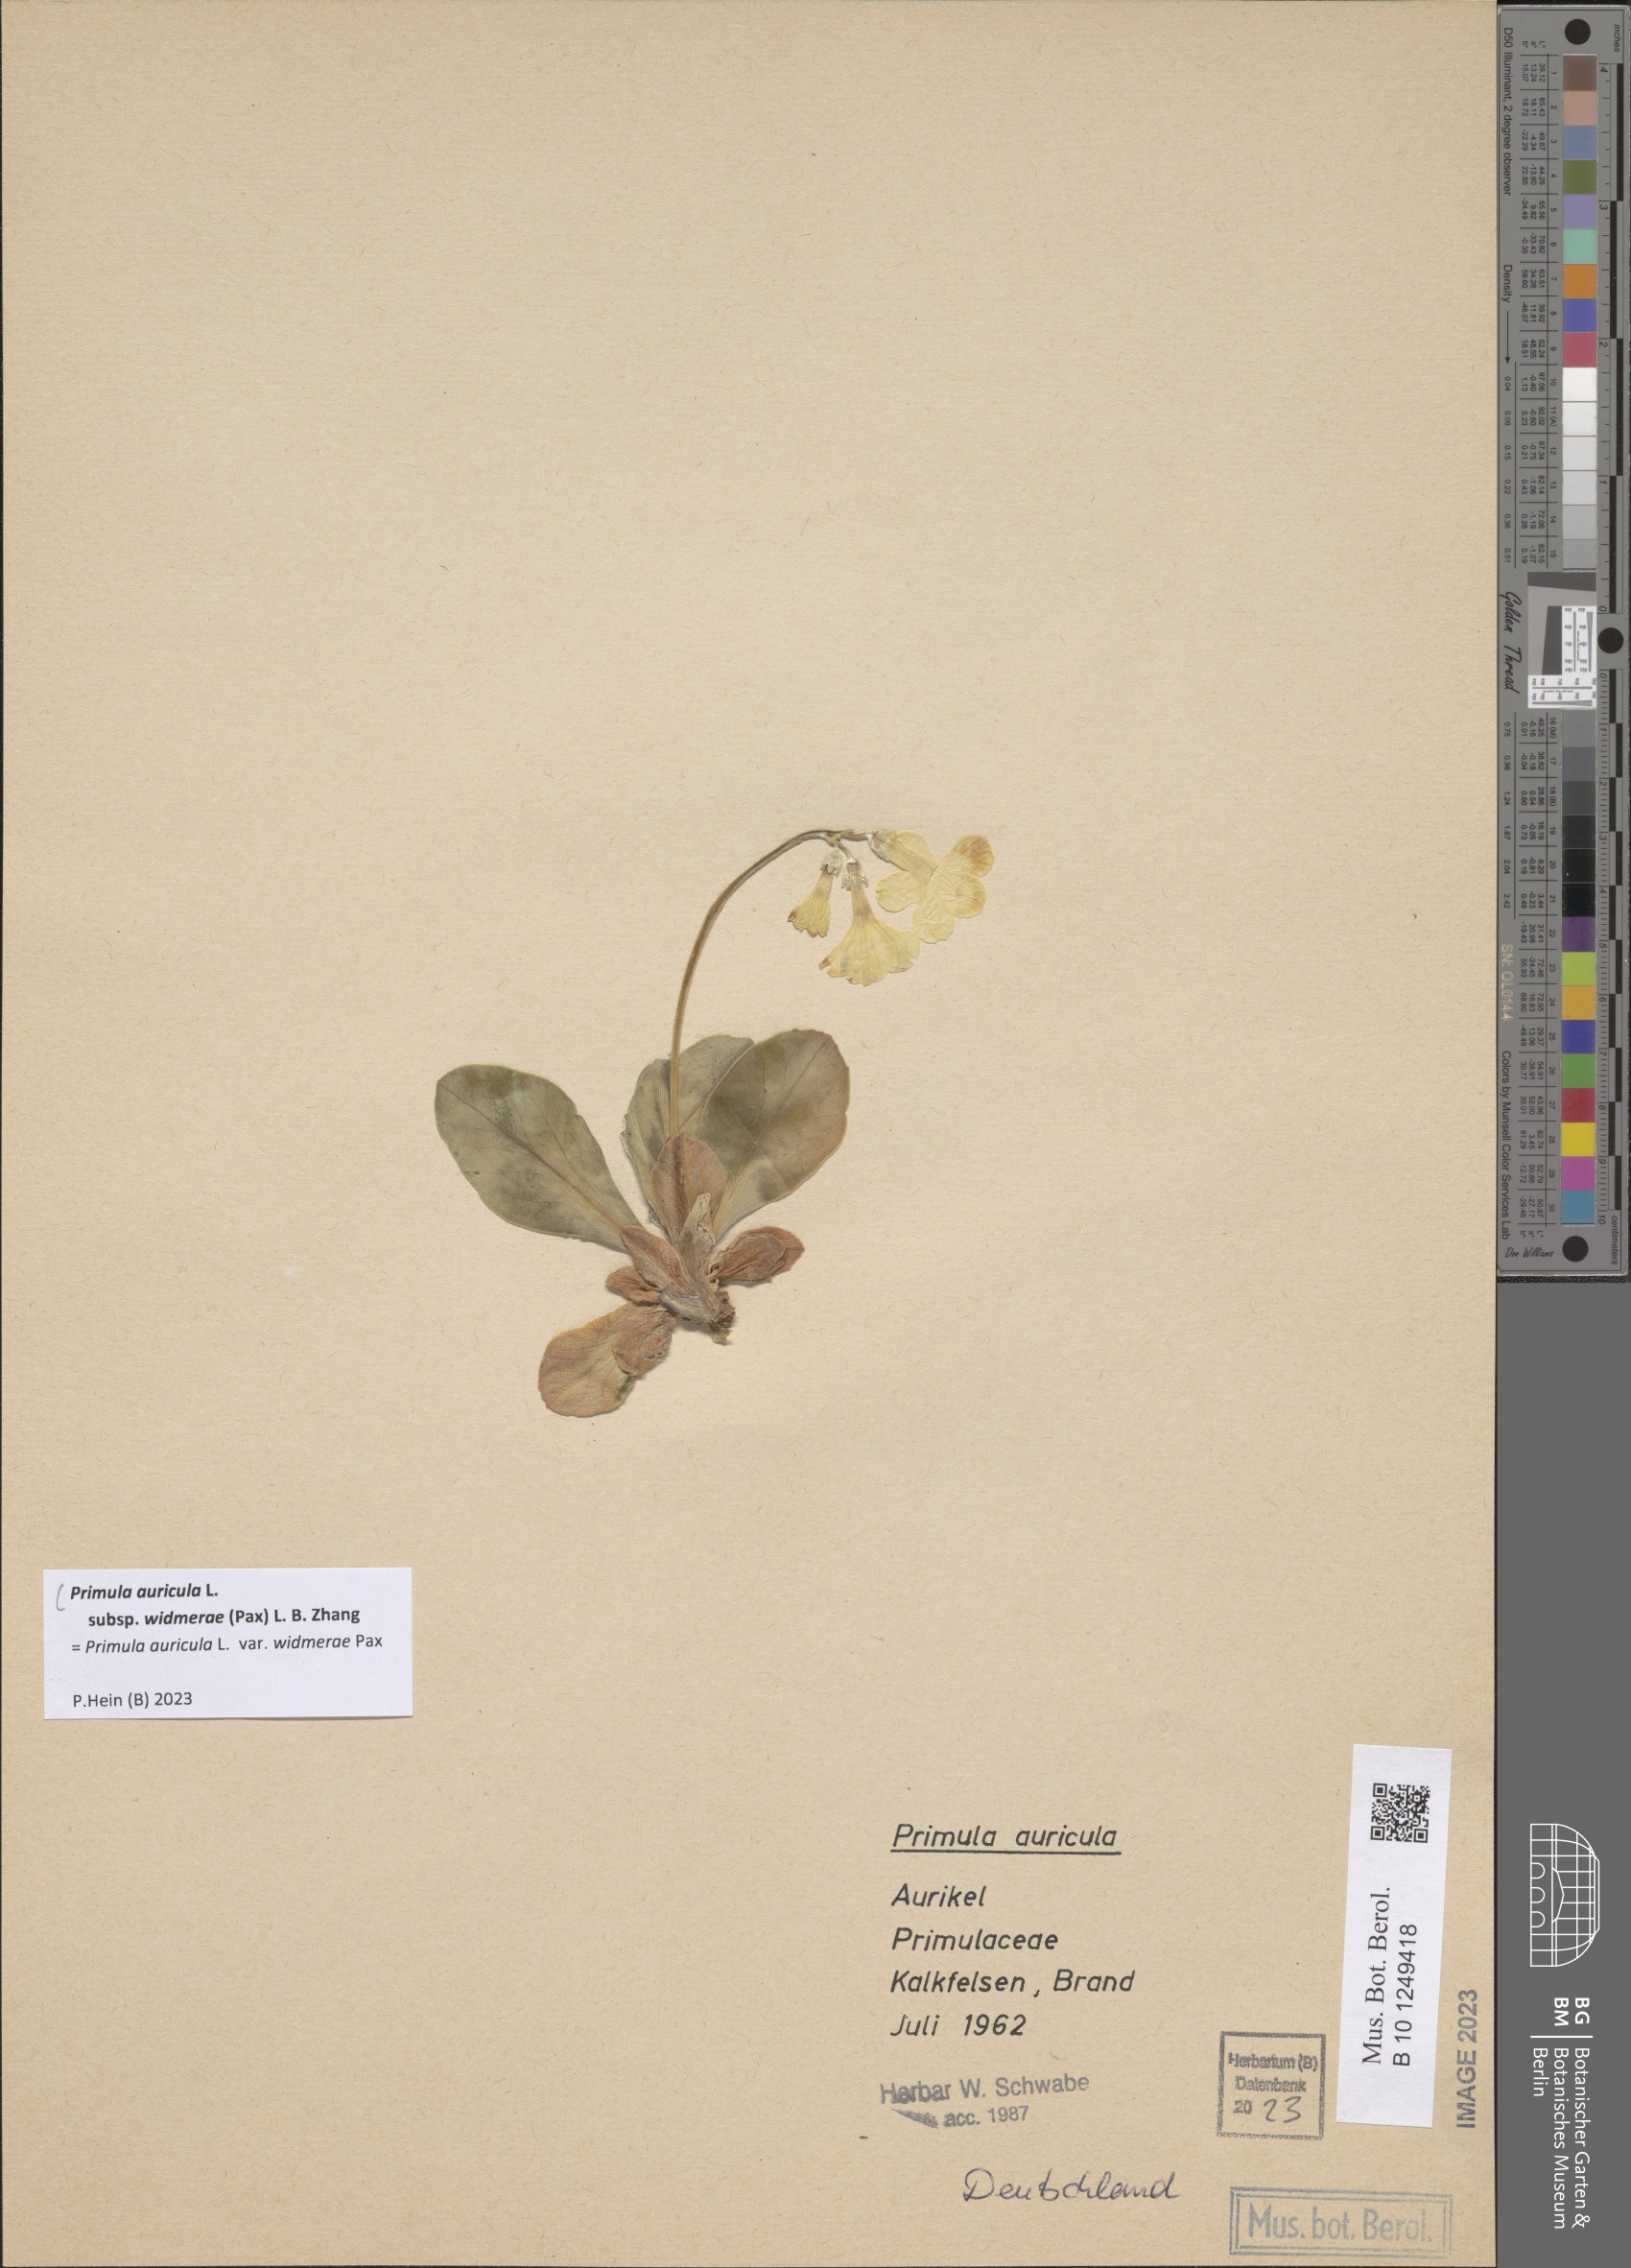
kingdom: Plantae
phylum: Tracheophyta
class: Magnoliopsida
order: Ericales
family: Primulaceae
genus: Primula
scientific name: Primula auricula
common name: Auricula
